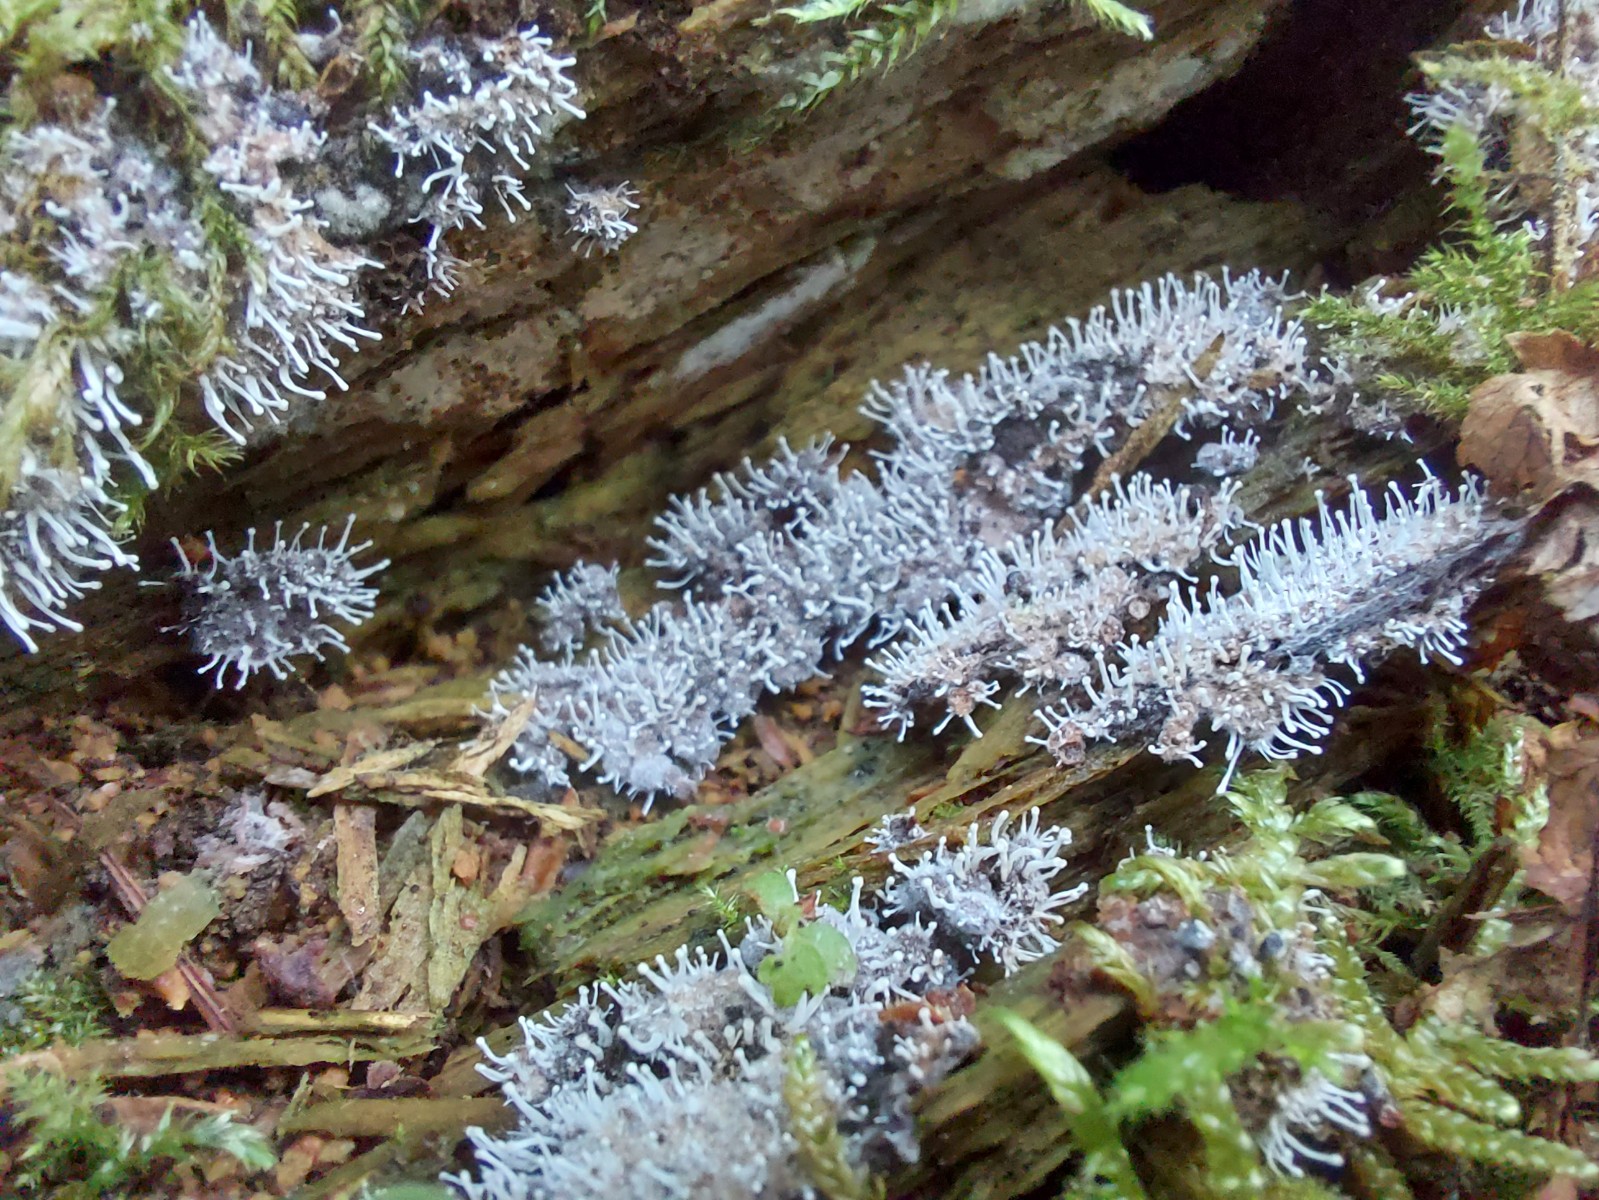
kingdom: Fungi
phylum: Ascomycota
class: Sordariomycetes
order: Hypocreales
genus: Stilbella
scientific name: Stilbella byssiseda
